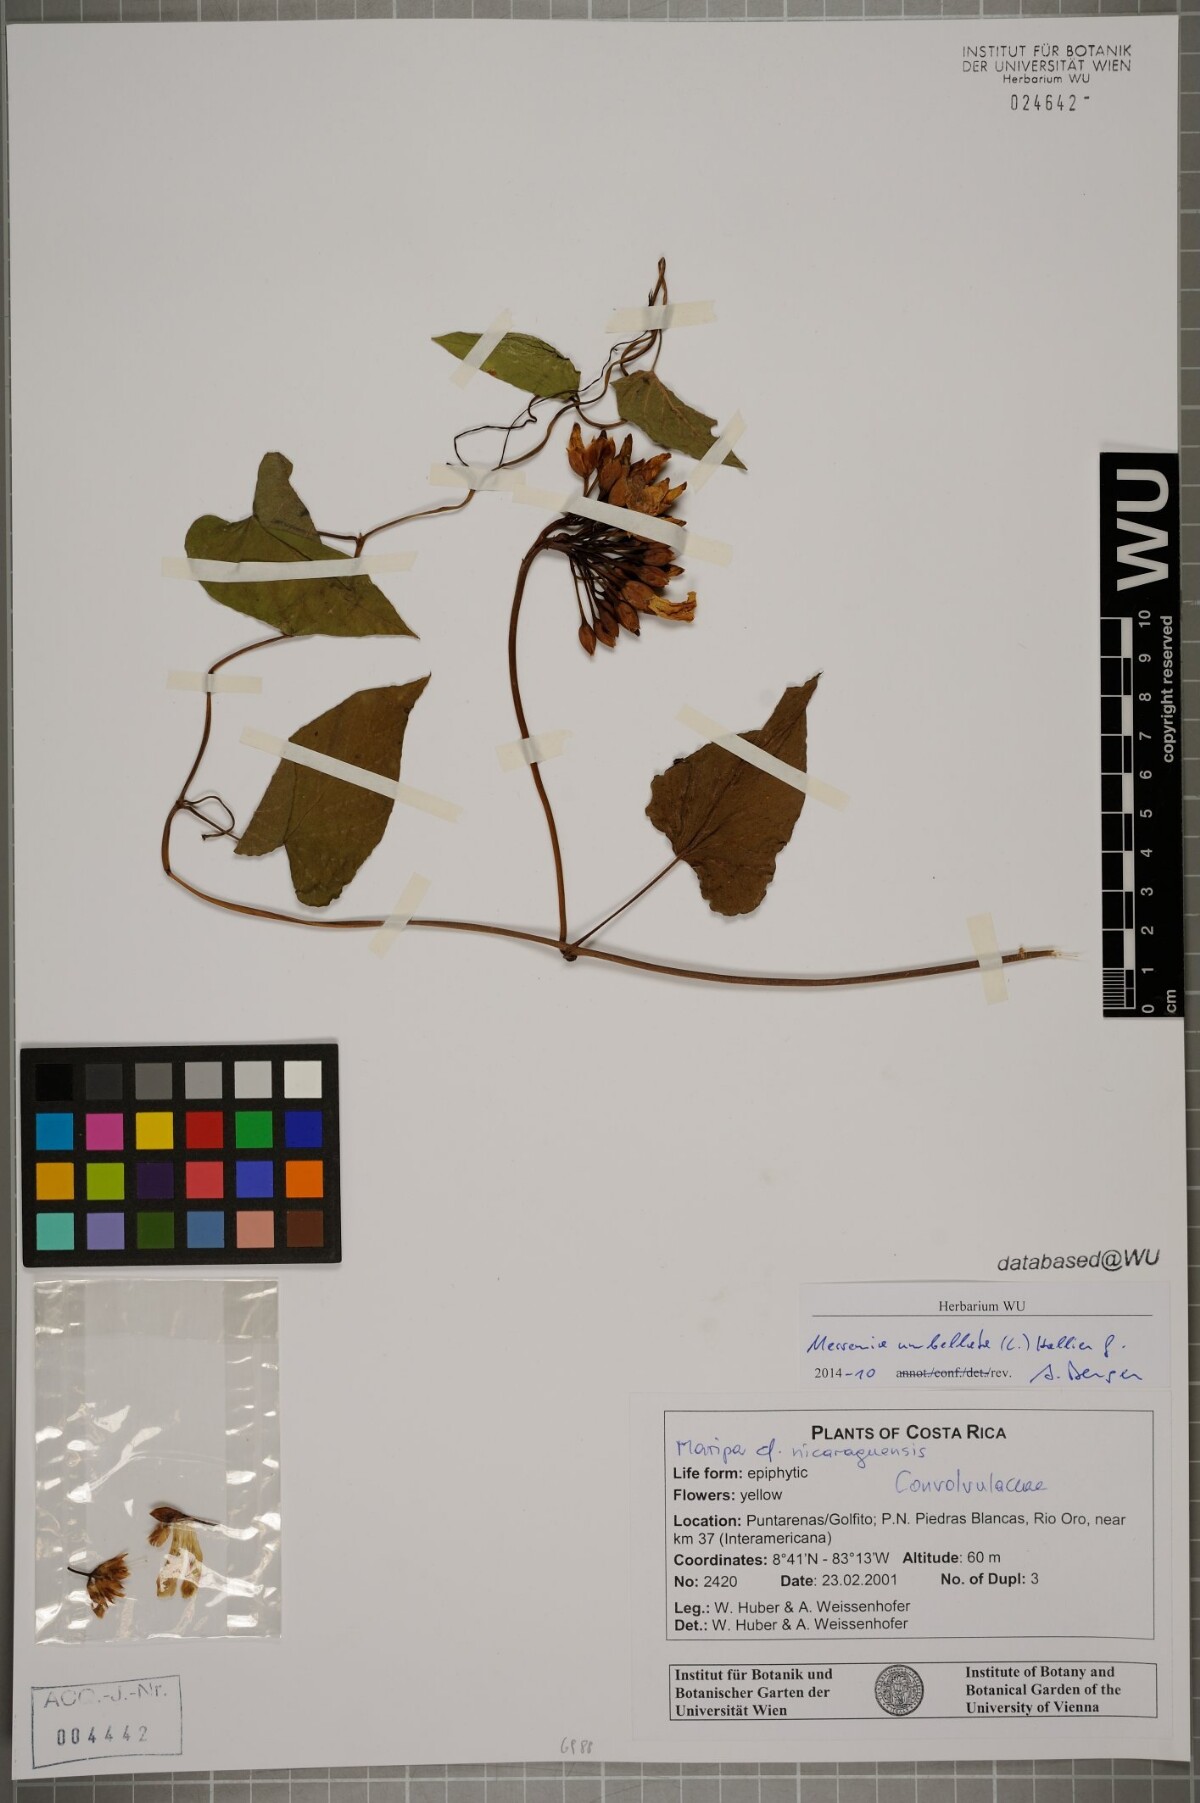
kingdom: Plantae
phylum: Tracheophyta
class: Magnoliopsida
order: Solanales
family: Convolvulaceae
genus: Camonea
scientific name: Camonea umbellata
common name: Hogvine
